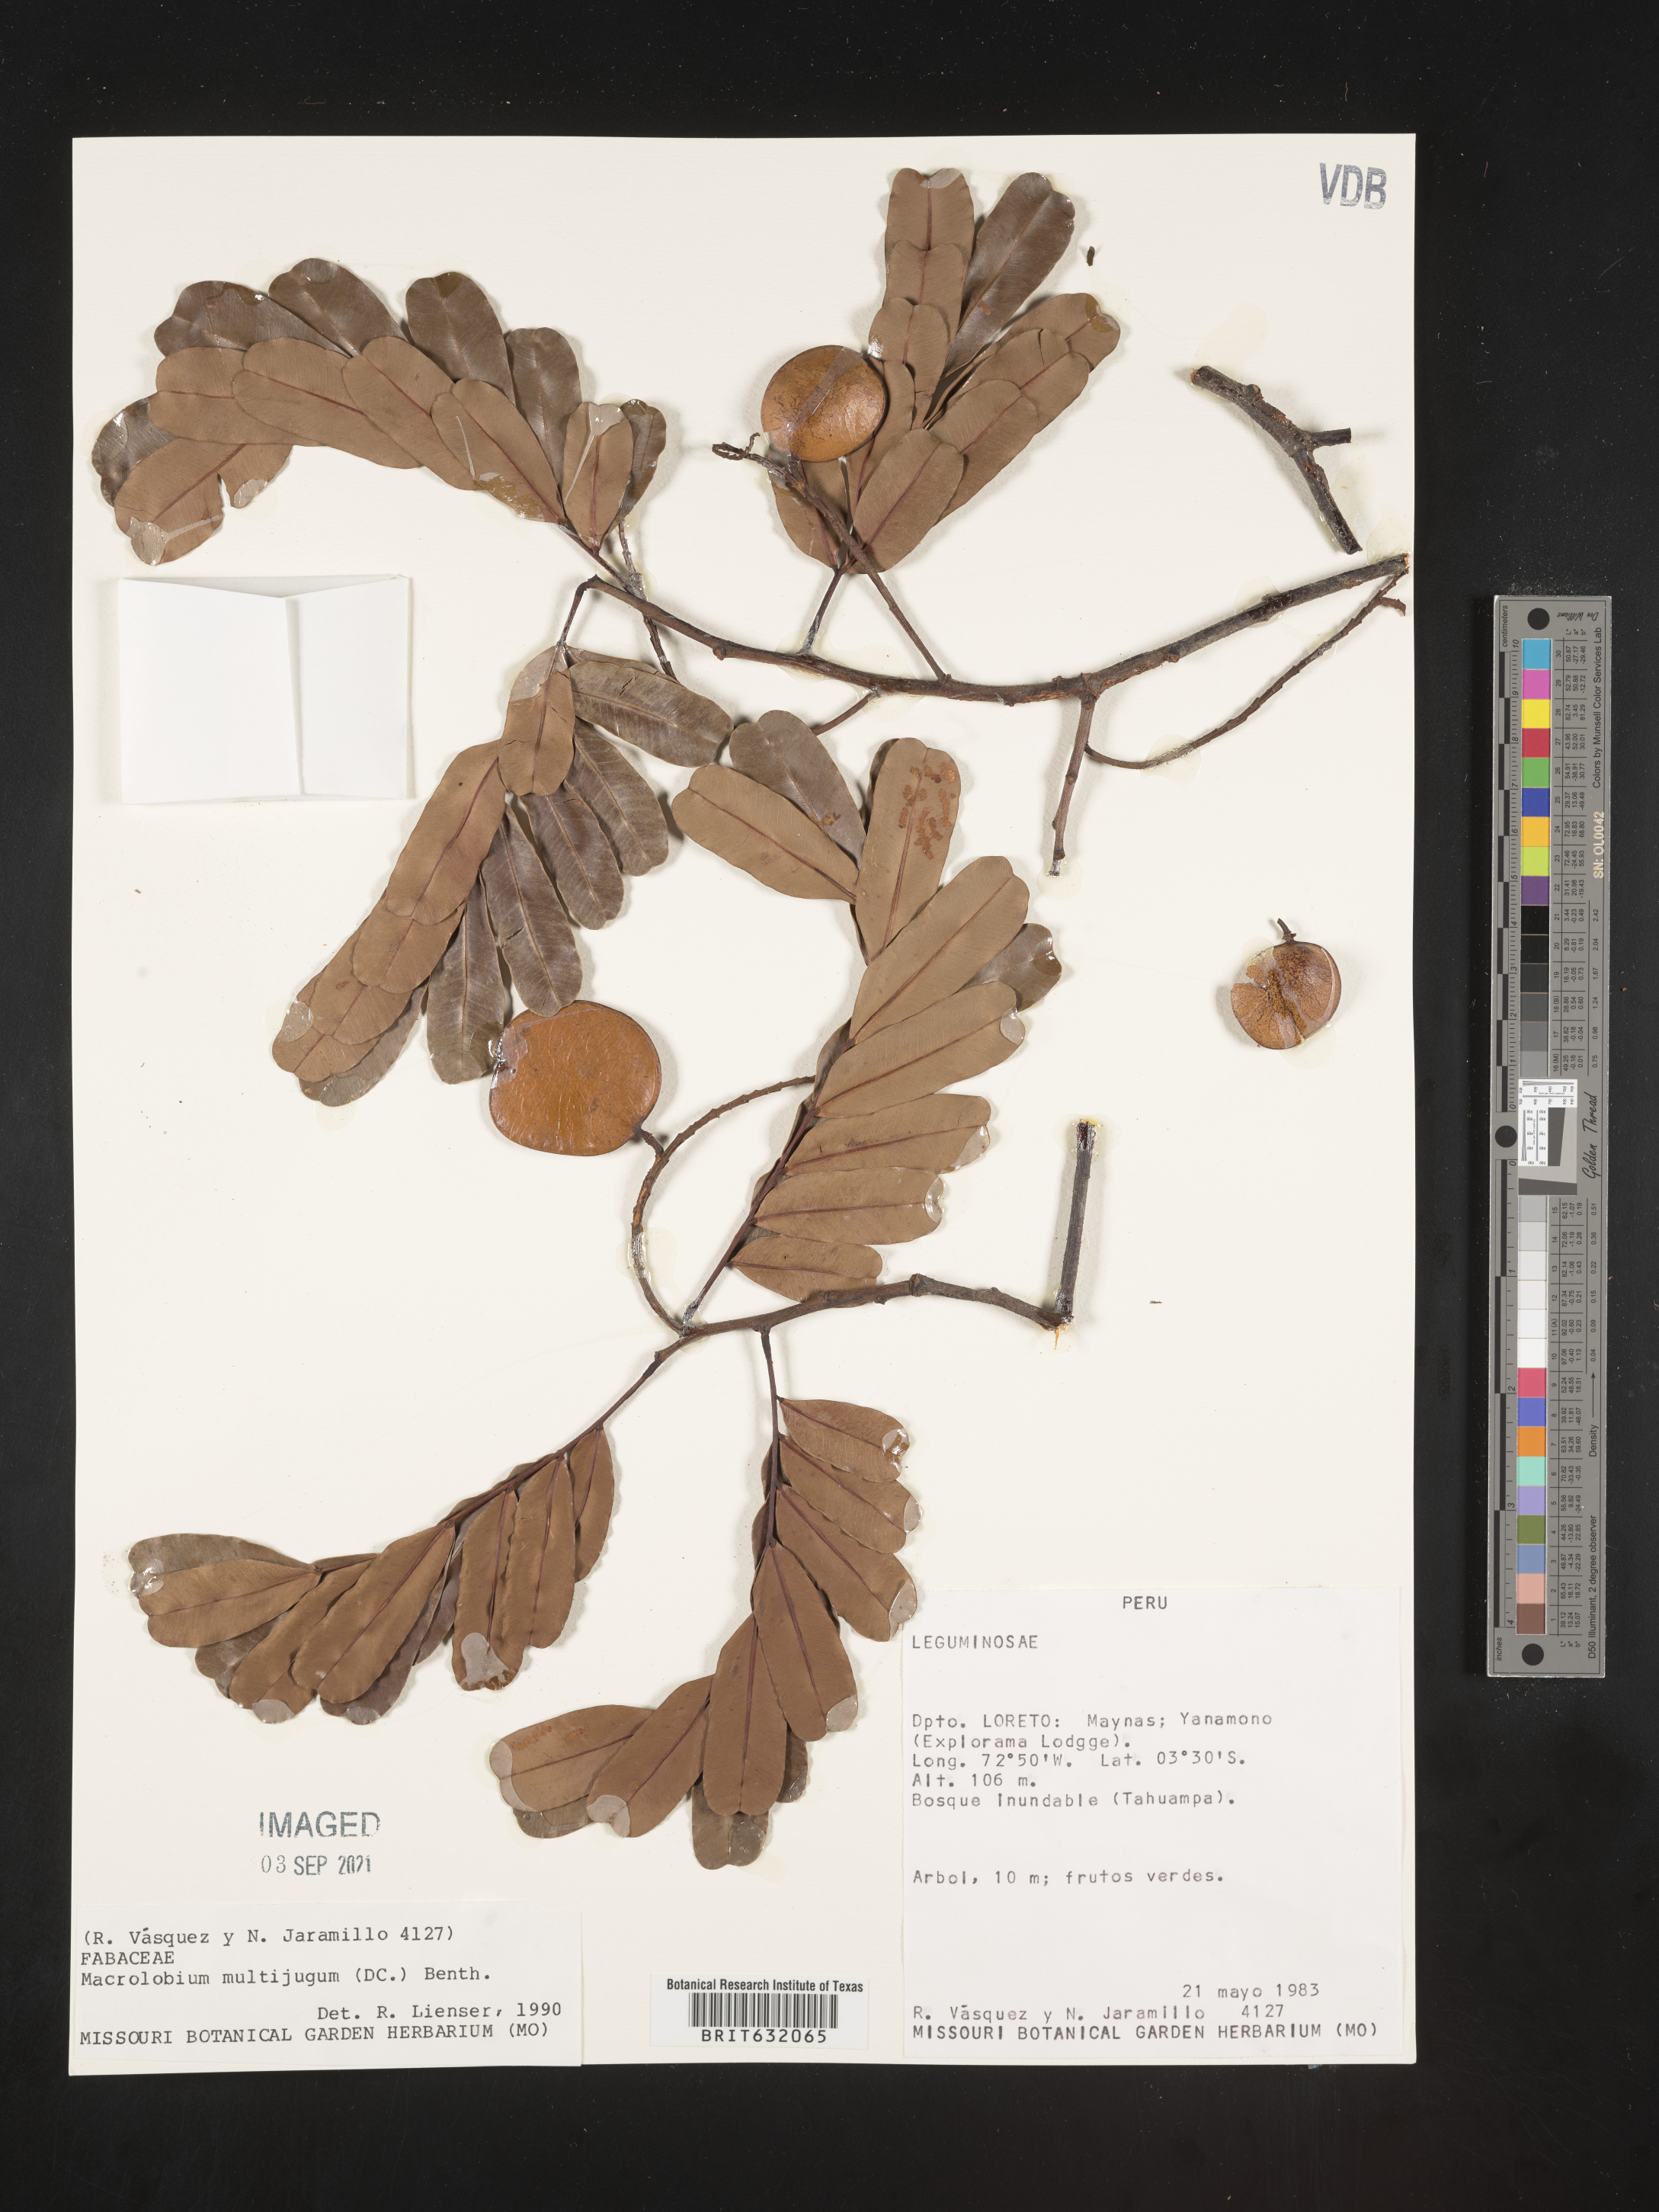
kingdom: Plantae
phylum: Tracheophyta
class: Magnoliopsida
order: Fabales
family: Fabaceae
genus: Macrolobium
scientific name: Macrolobium
